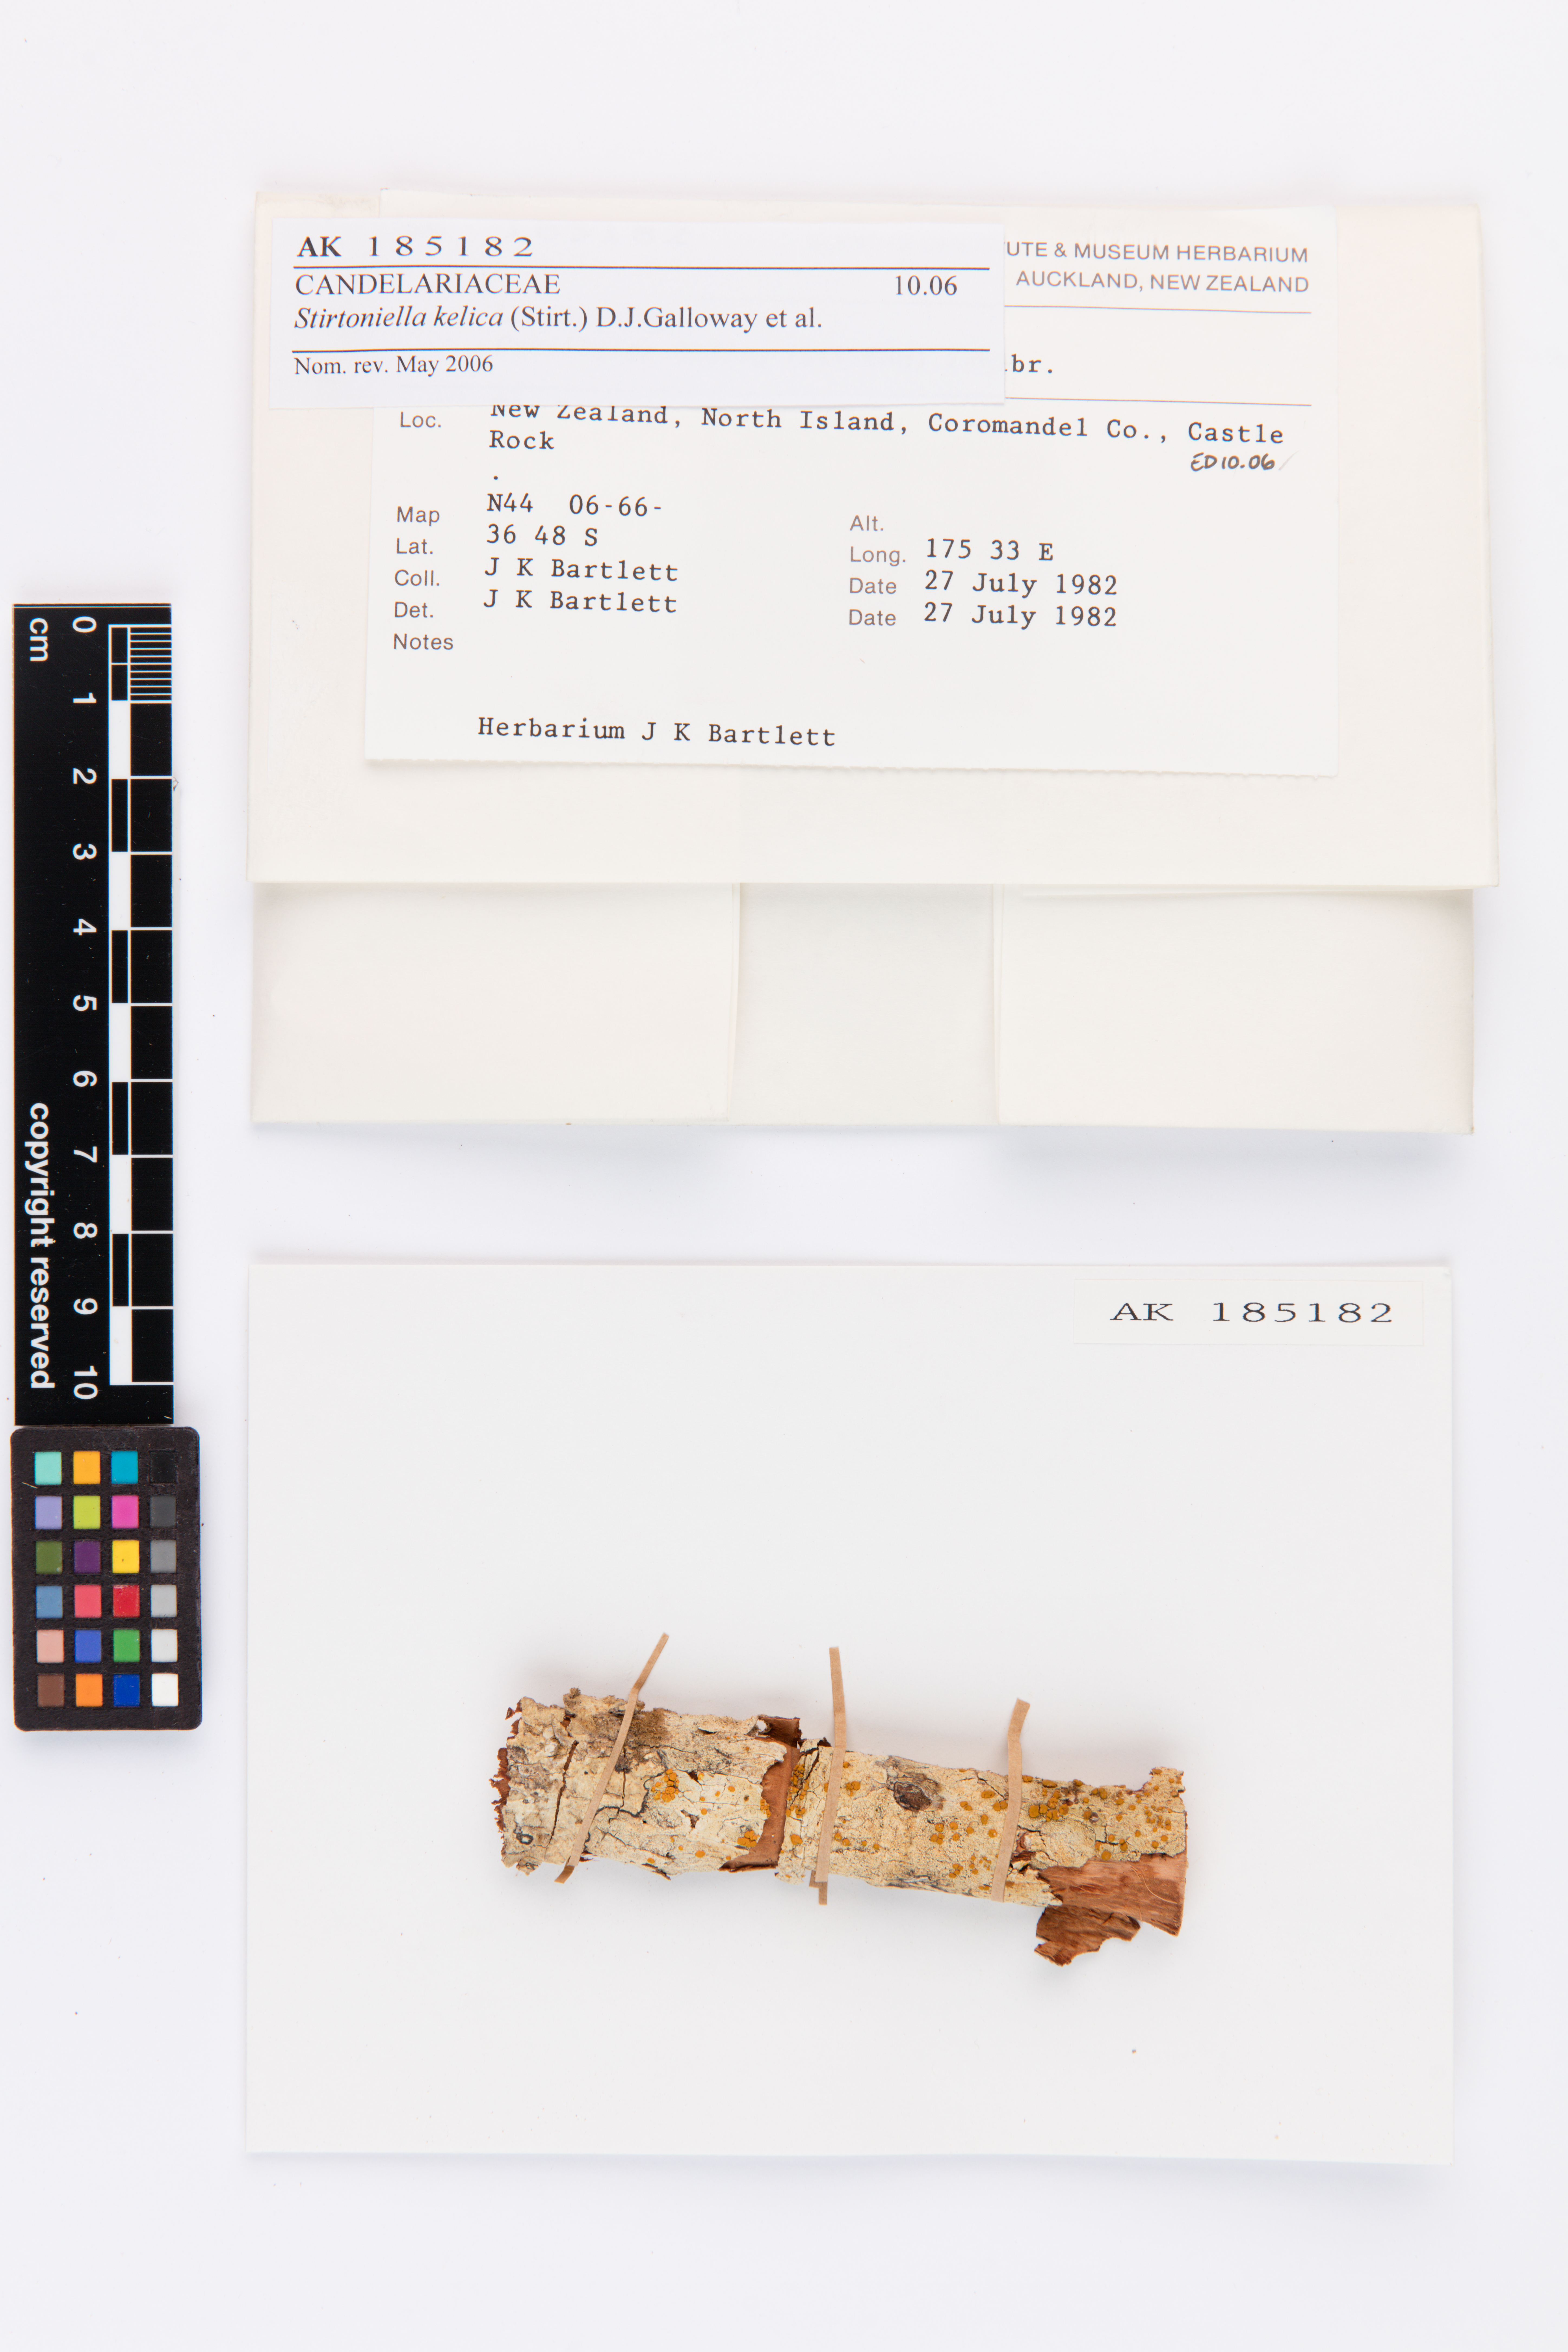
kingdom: Fungi
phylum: Ascomycota
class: Lecanoromycetes
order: Lecanorales
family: Ramalinaceae
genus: Stirtoniella
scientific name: Stirtoniella kelica
